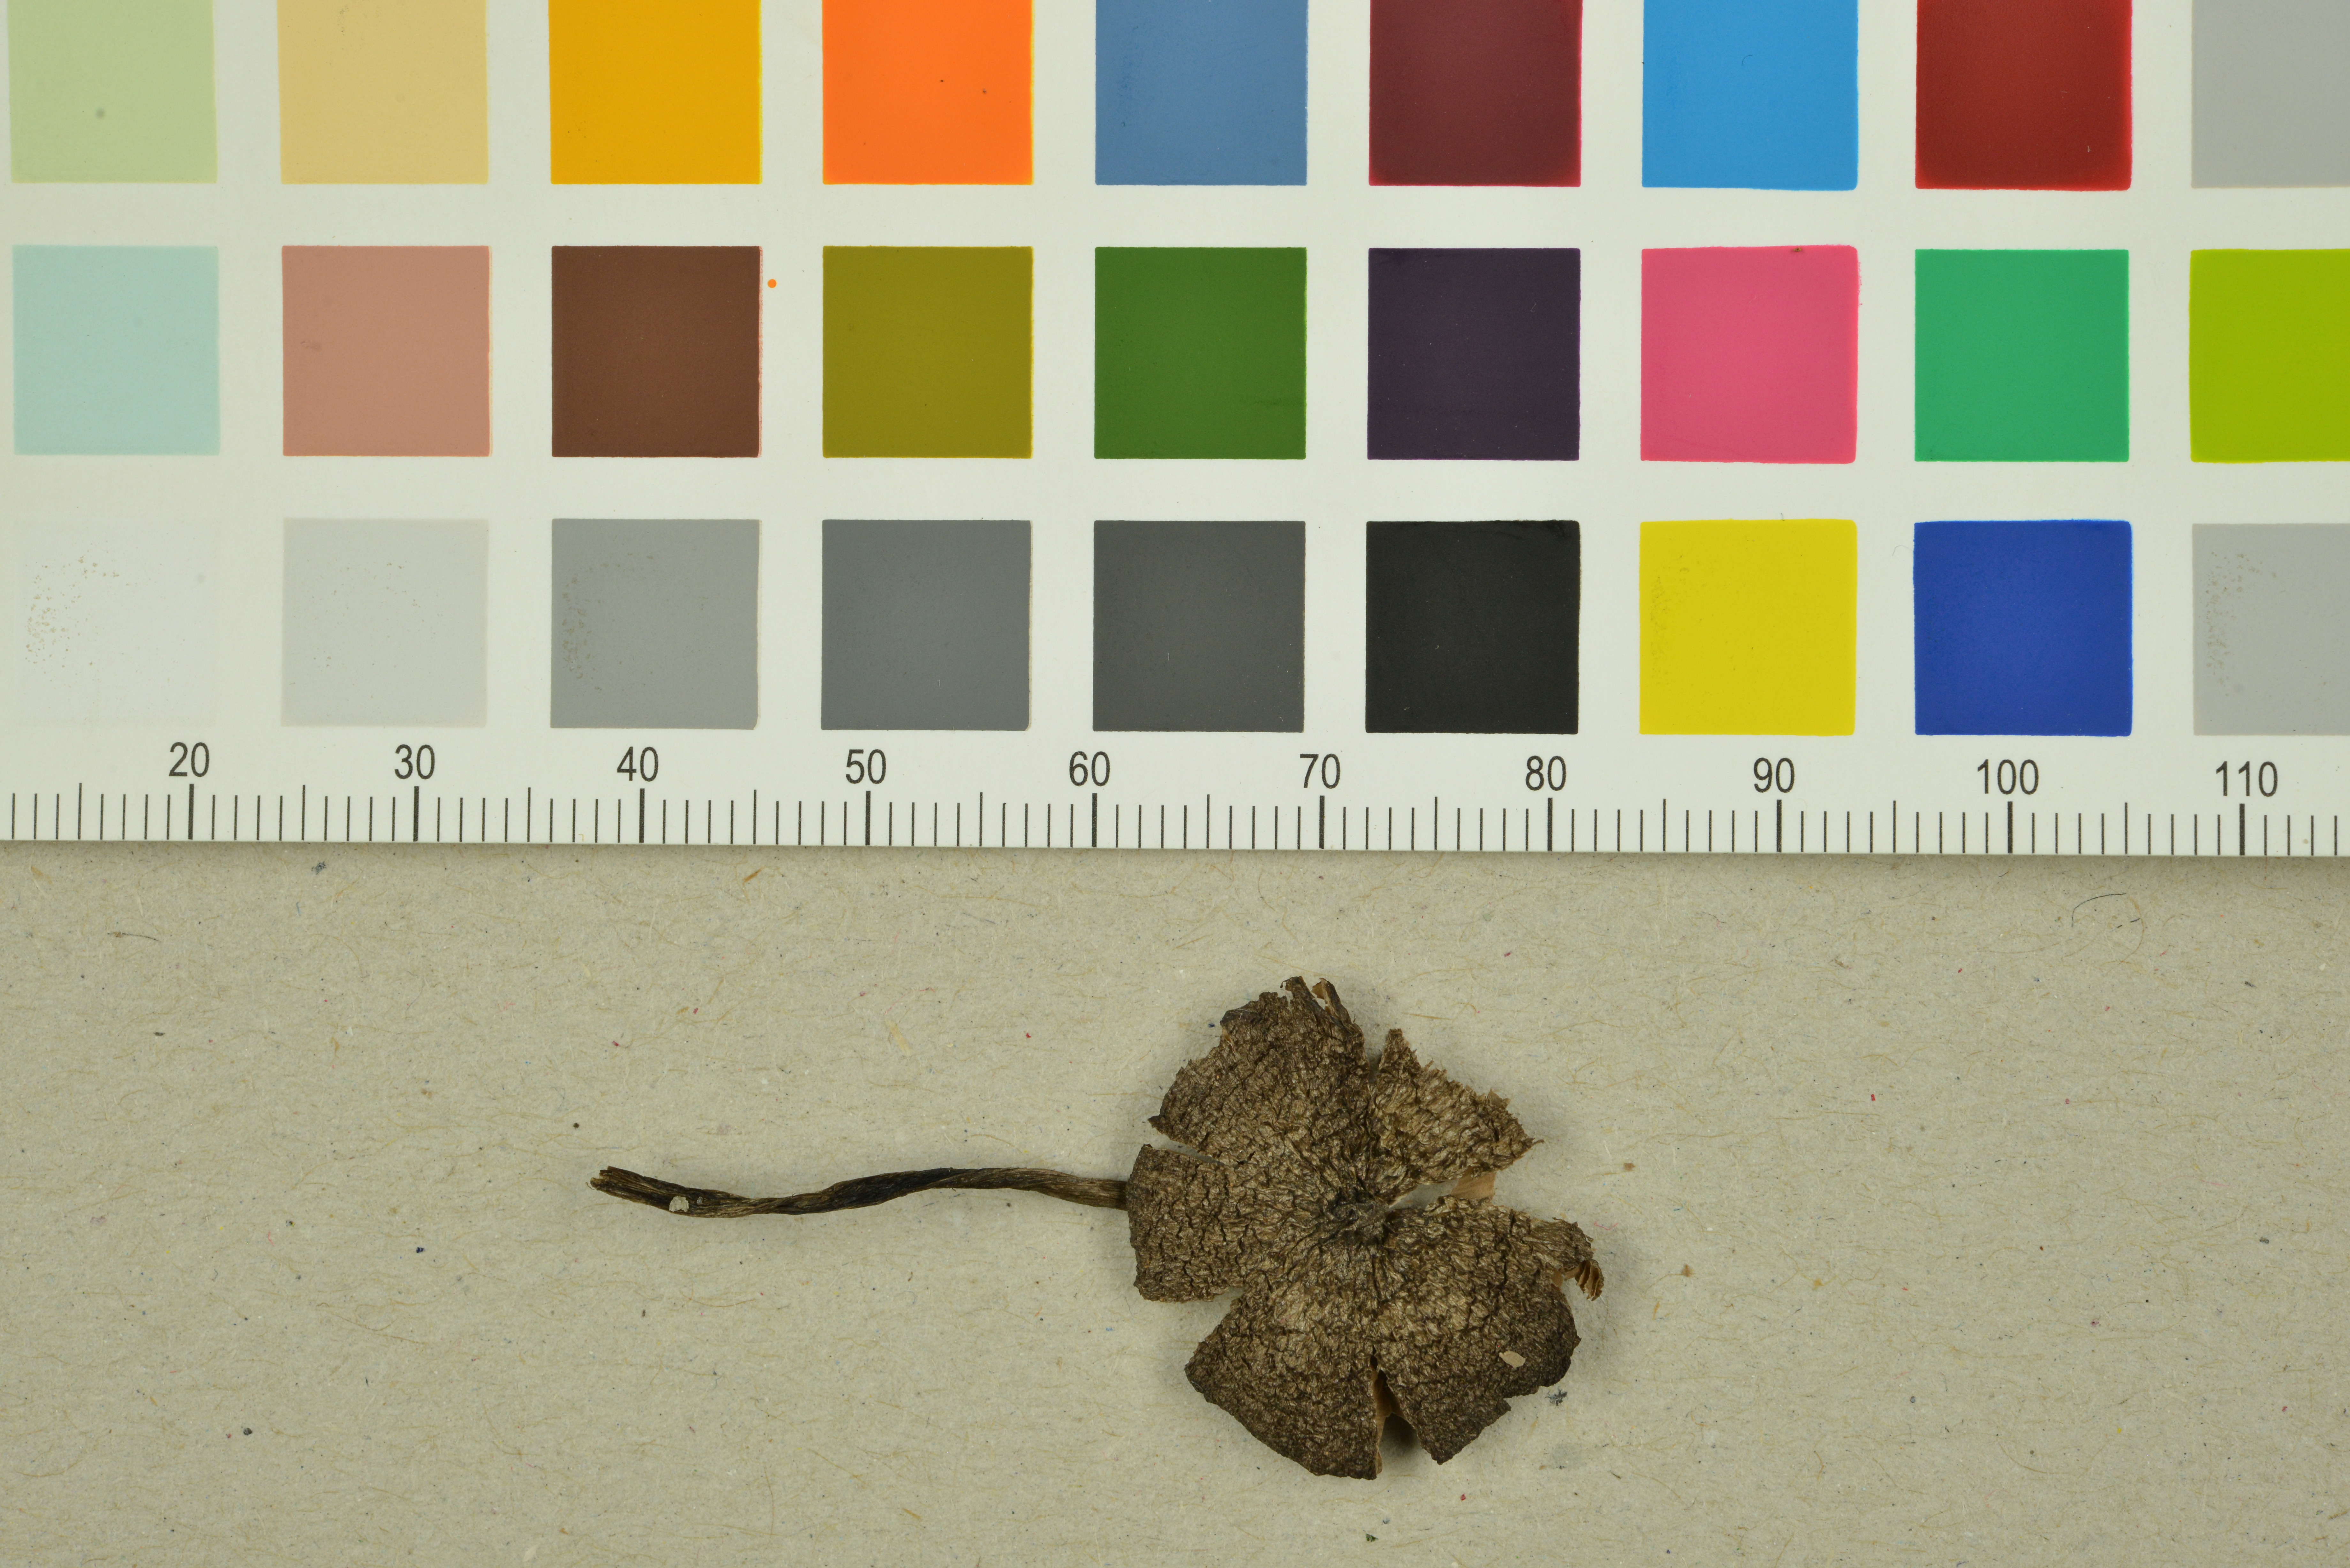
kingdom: Fungi
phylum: Basidiomycota
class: Agaricomycetes
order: Agaricales
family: Entolomataceae
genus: Entoloma
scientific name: Entoloma fuscotomentosum
